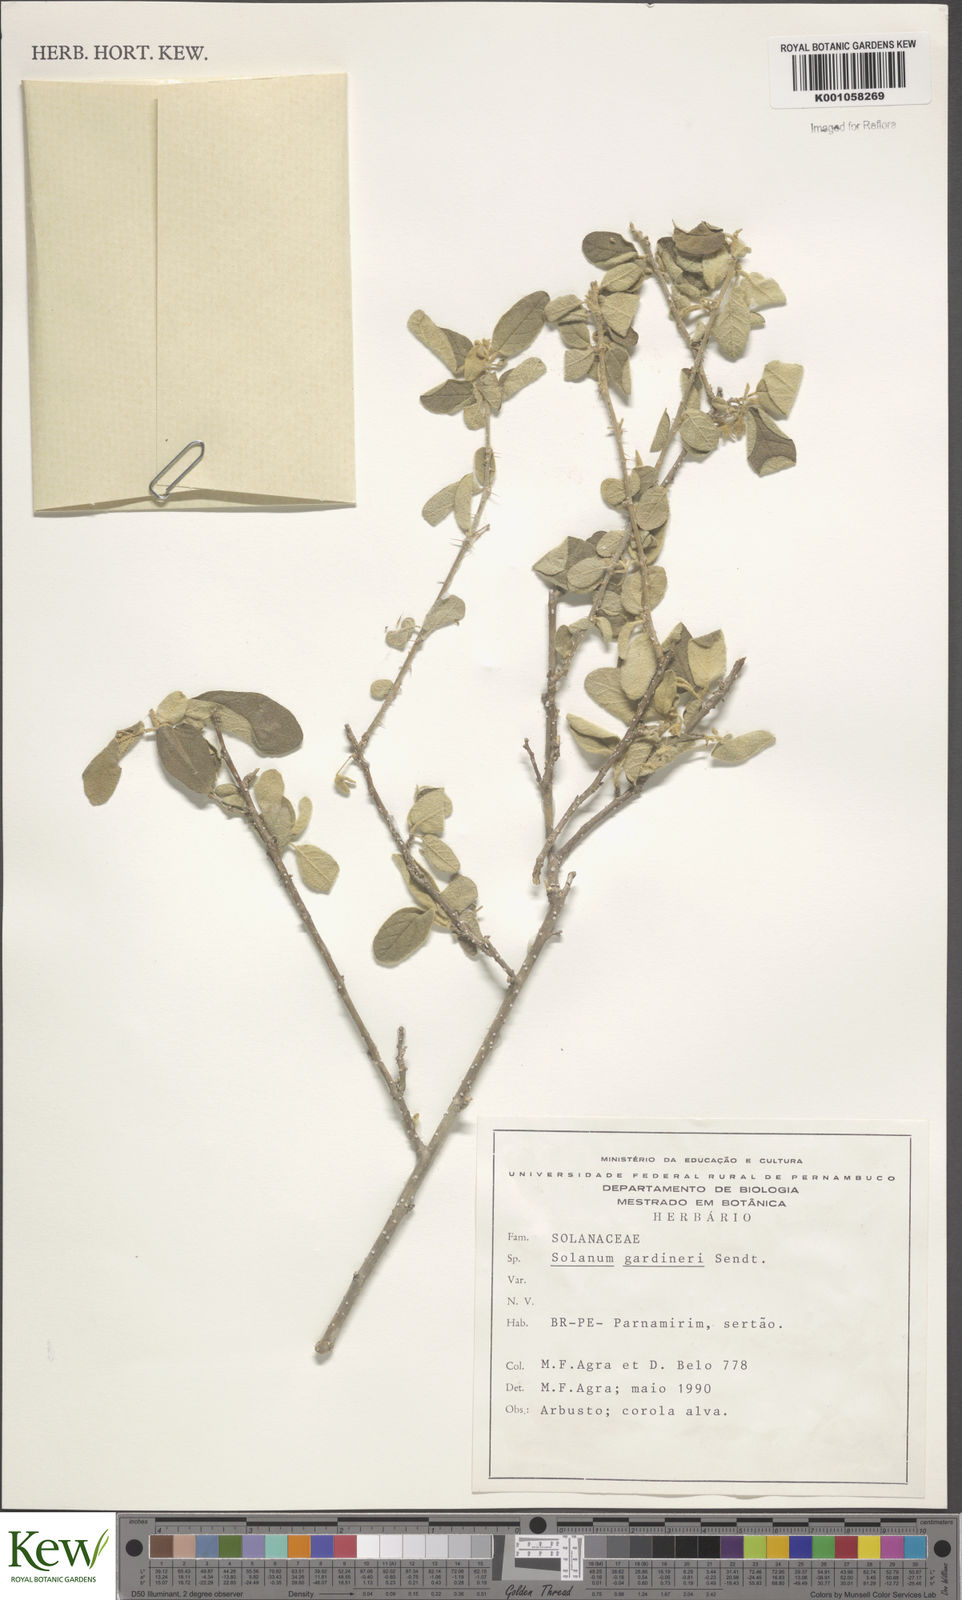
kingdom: Plantae
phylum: Tracheophyta
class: Magnoliopsida
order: Solanales
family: Solanaceae
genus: Solanum
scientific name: Solanum gardneri
